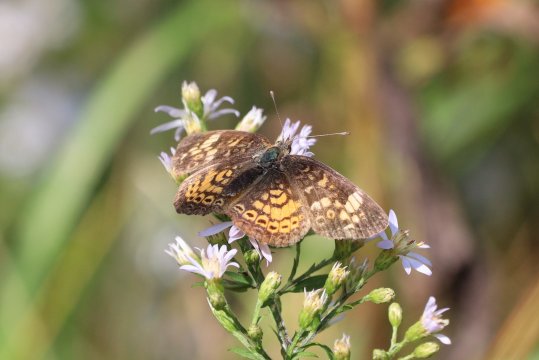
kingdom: Animalia
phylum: Arthropoda
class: Insecta
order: Lepidoptera
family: Nymphalidae
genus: Phyciodes
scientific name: Phyciodes
